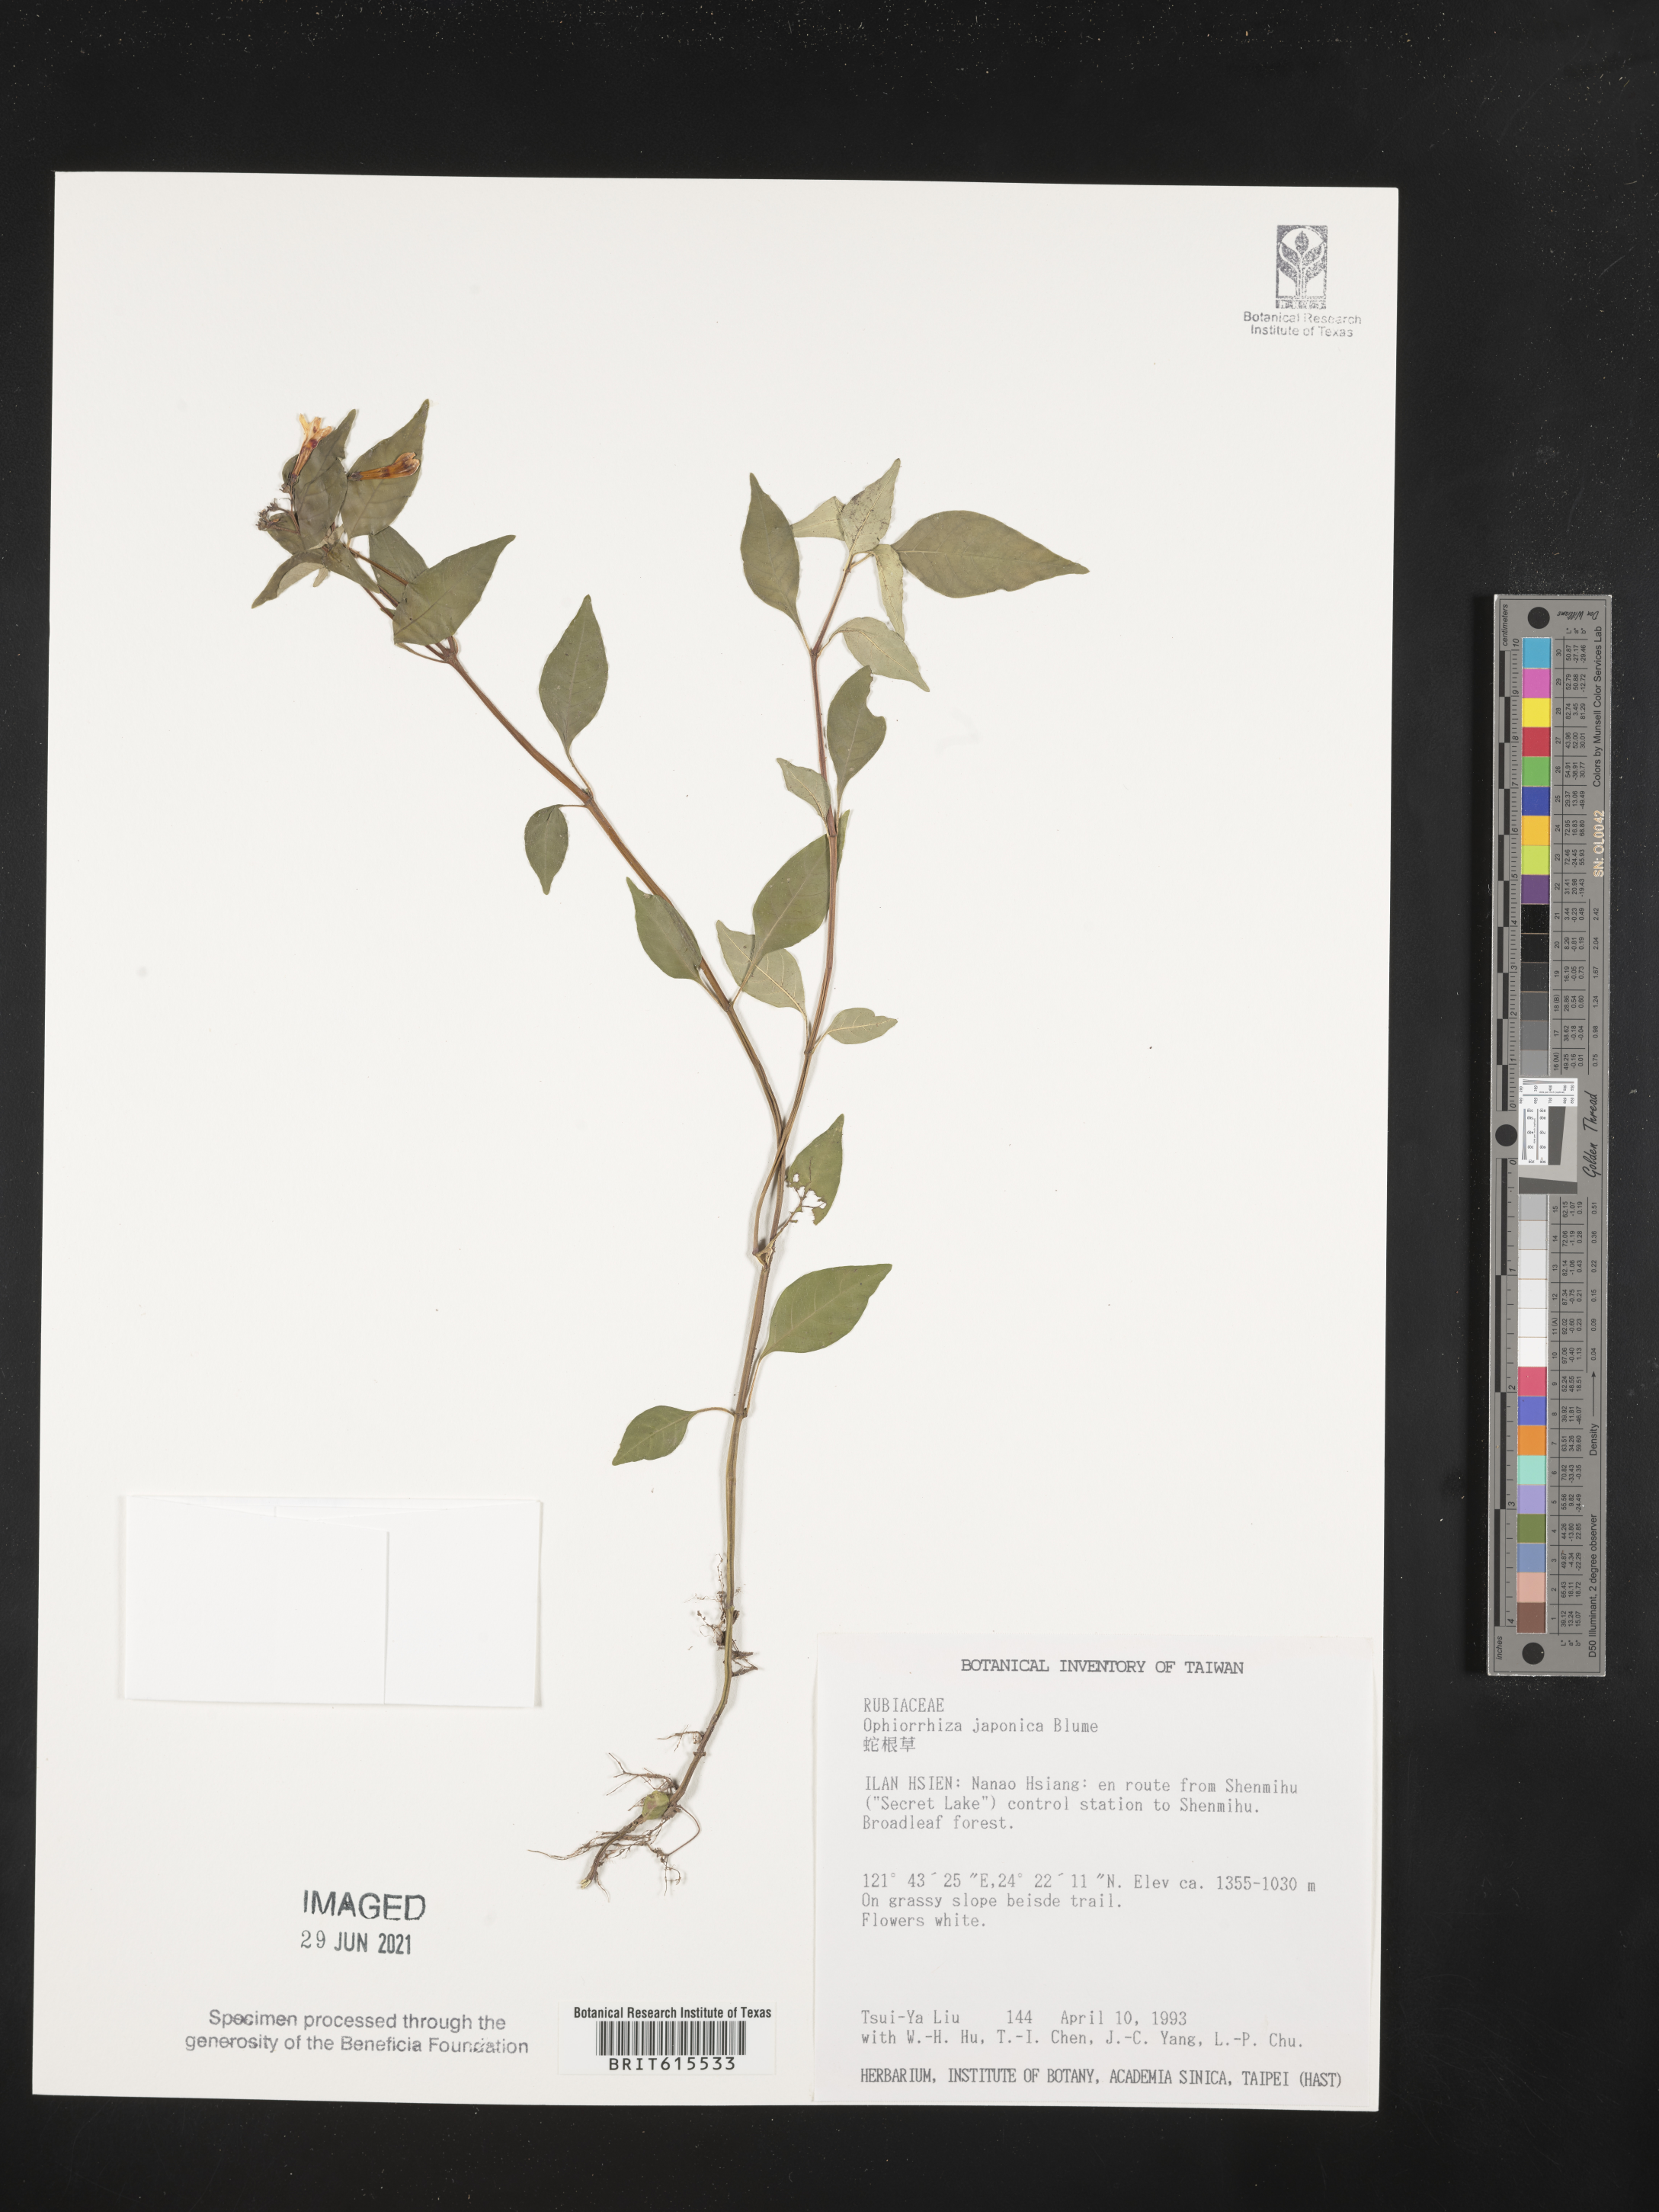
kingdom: Plantae
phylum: Tracheophyta
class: Magnoliopsida
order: Gentianales
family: Rubiaceae
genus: Ophiorrhiza
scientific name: Ophiorrhiza japonica
